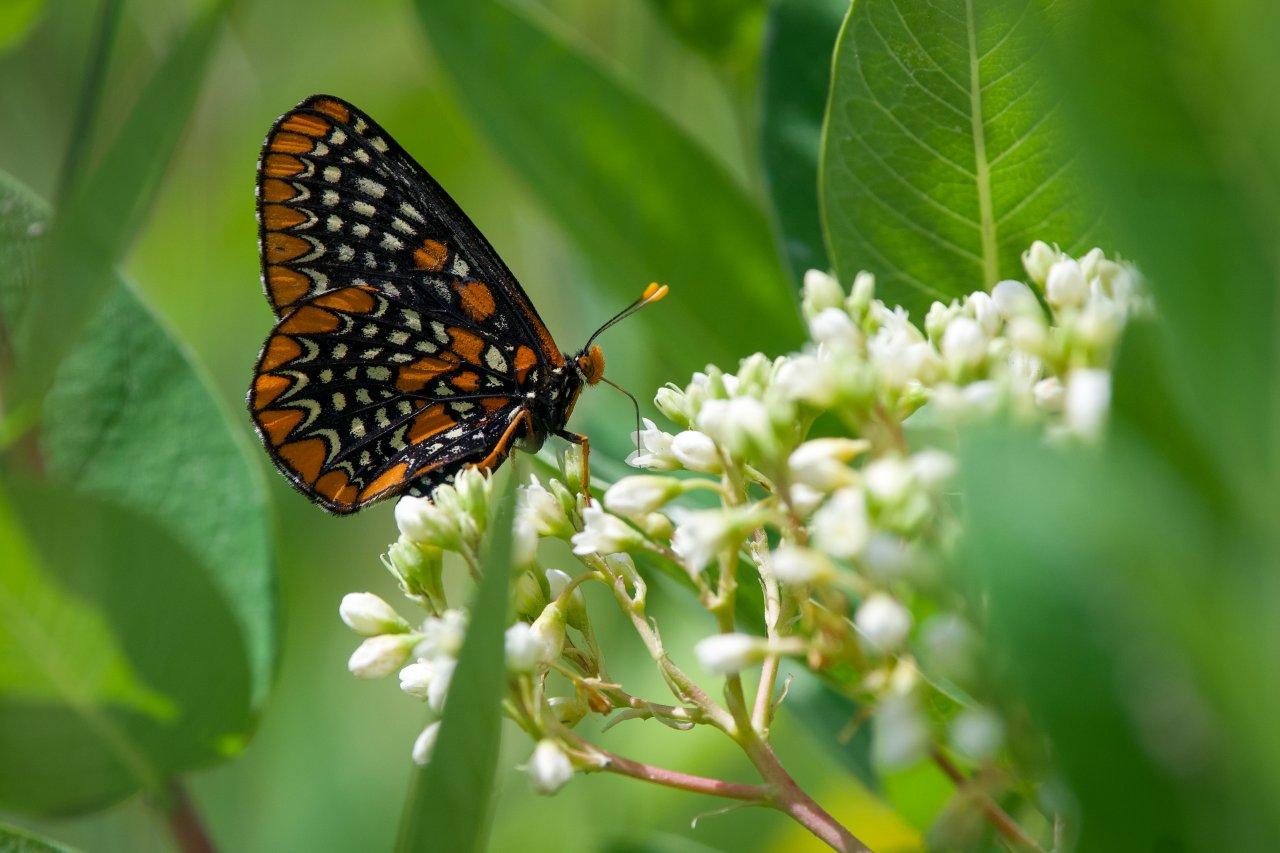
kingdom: Animalia
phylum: Arthropoda
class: Insecta
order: Lepidoptera
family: Nymphalidae
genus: Euphydryas
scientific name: Euphydryas phaeton
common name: Baltimore Checkerspot
